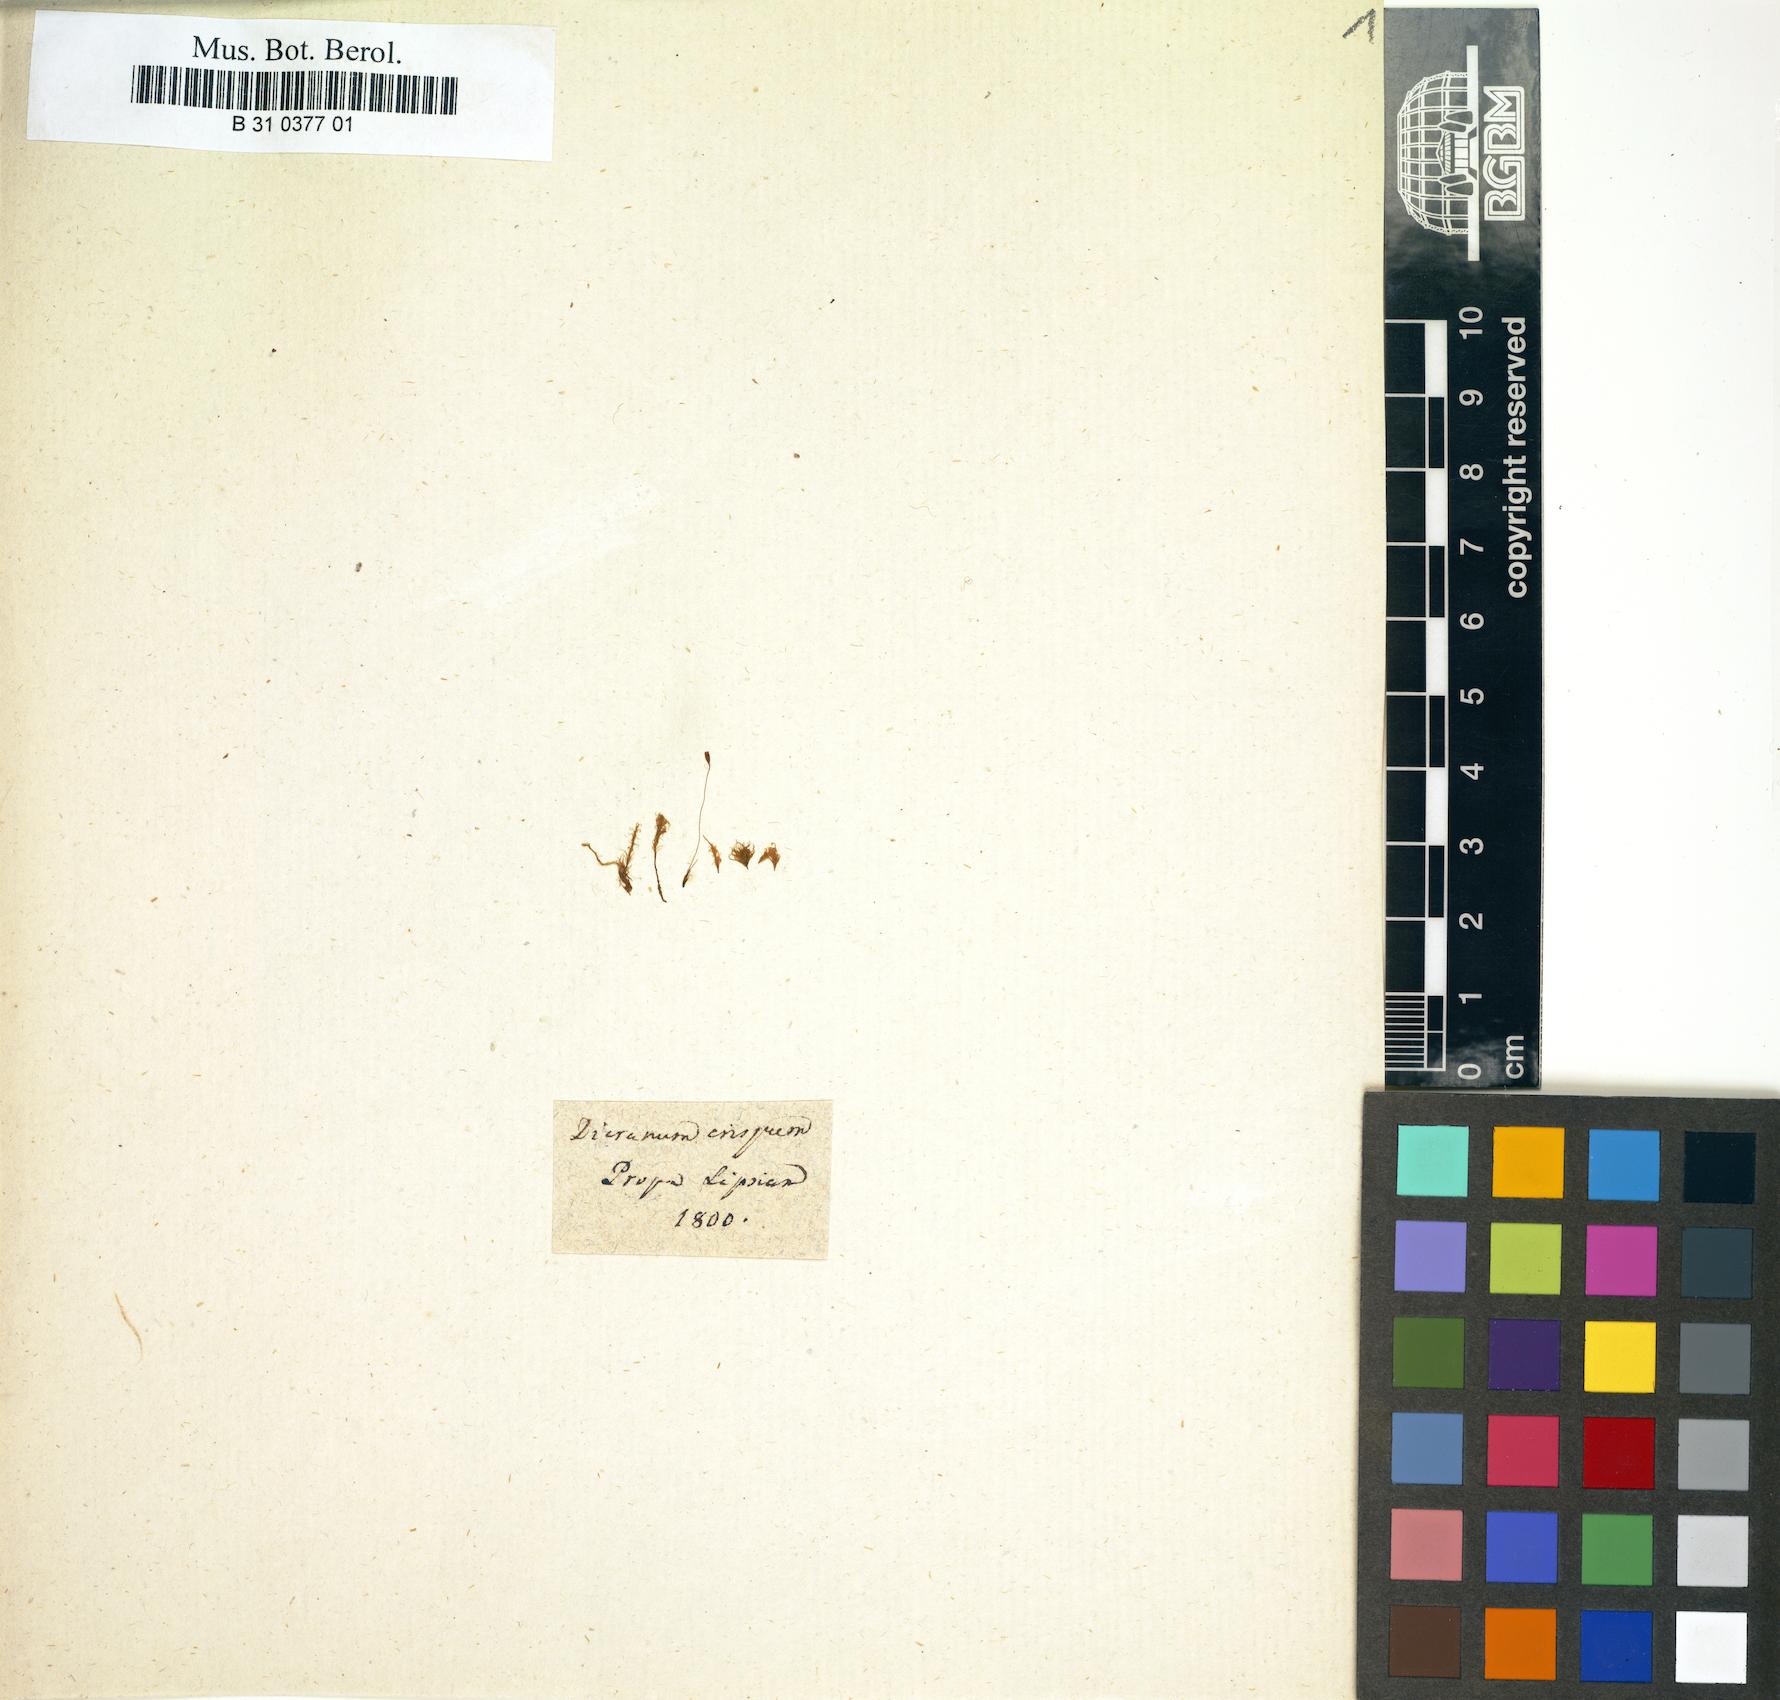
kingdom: Plantae
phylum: Bryophyta
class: Bryopsida
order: Dicranales
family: Dicranaceae
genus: Dicranum
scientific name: Dicranum fuscescens
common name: Curly heron's-bill moss
